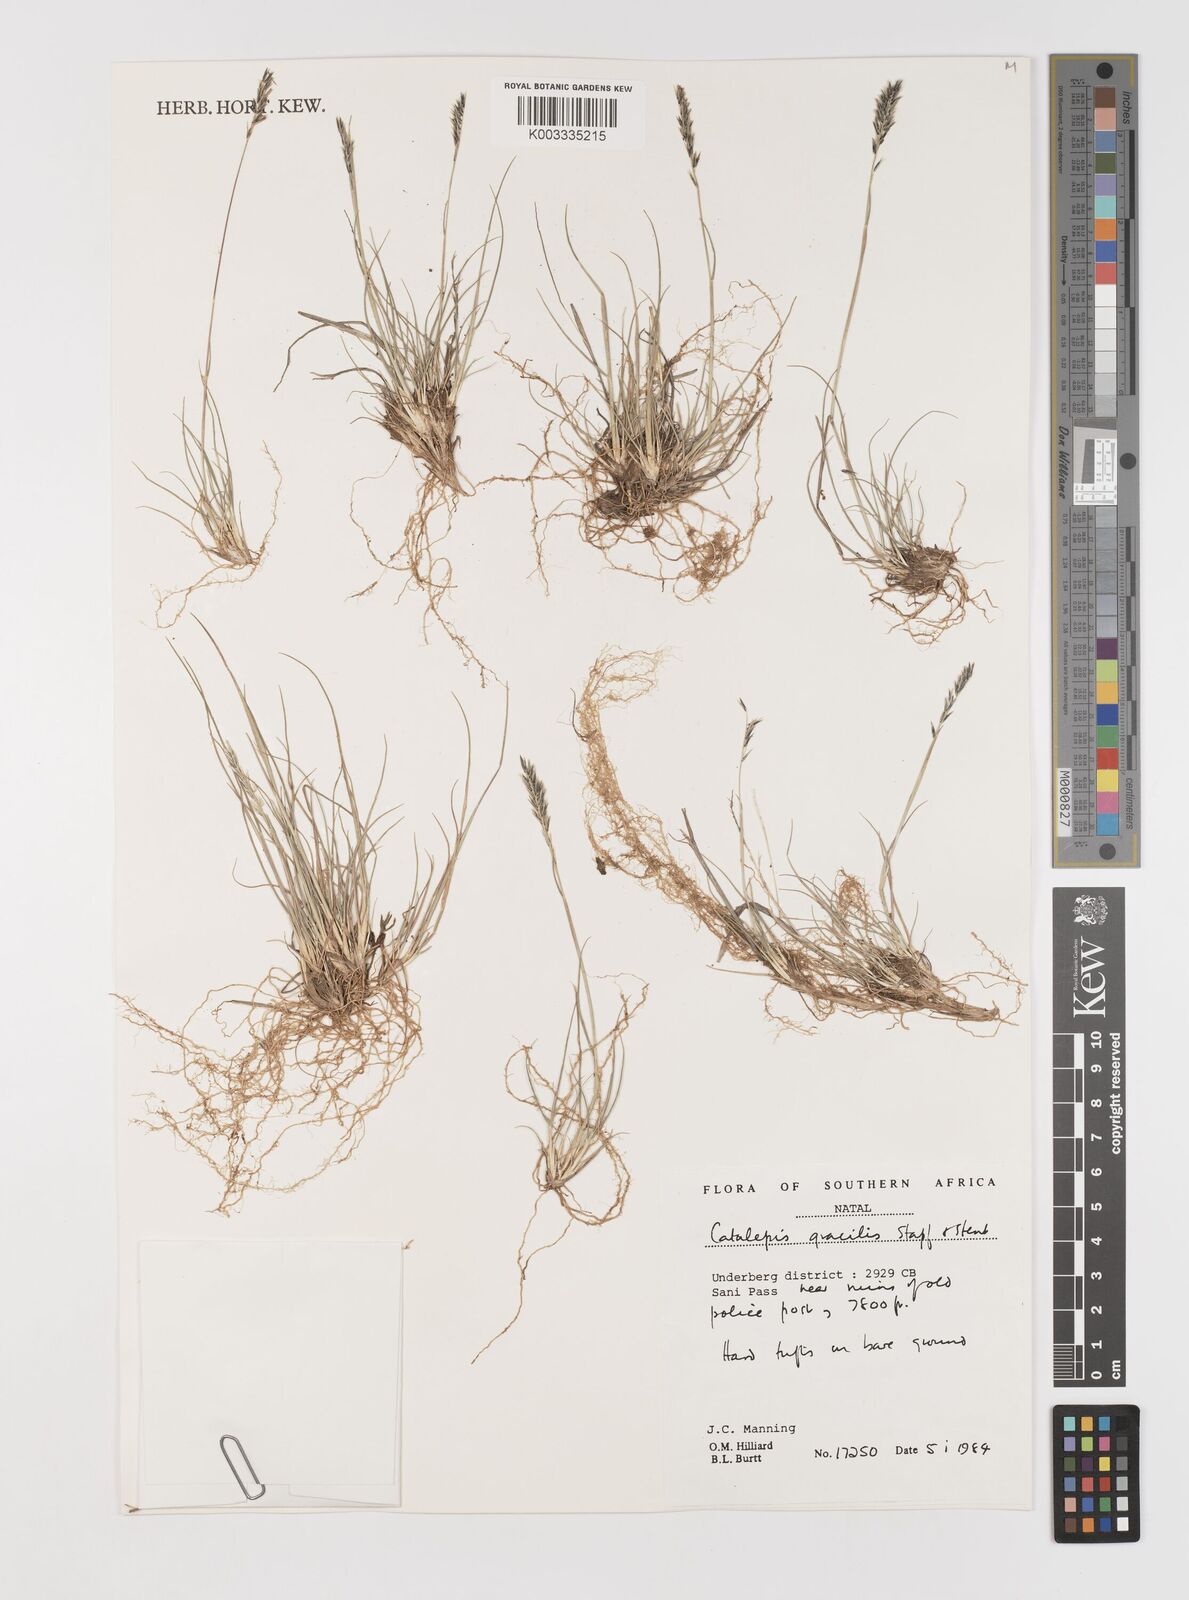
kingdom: Plantae
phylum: Tracheophyta
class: Liliopsida
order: Poales
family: Poaceae
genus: Catalepis
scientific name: Catalepis gracilis
